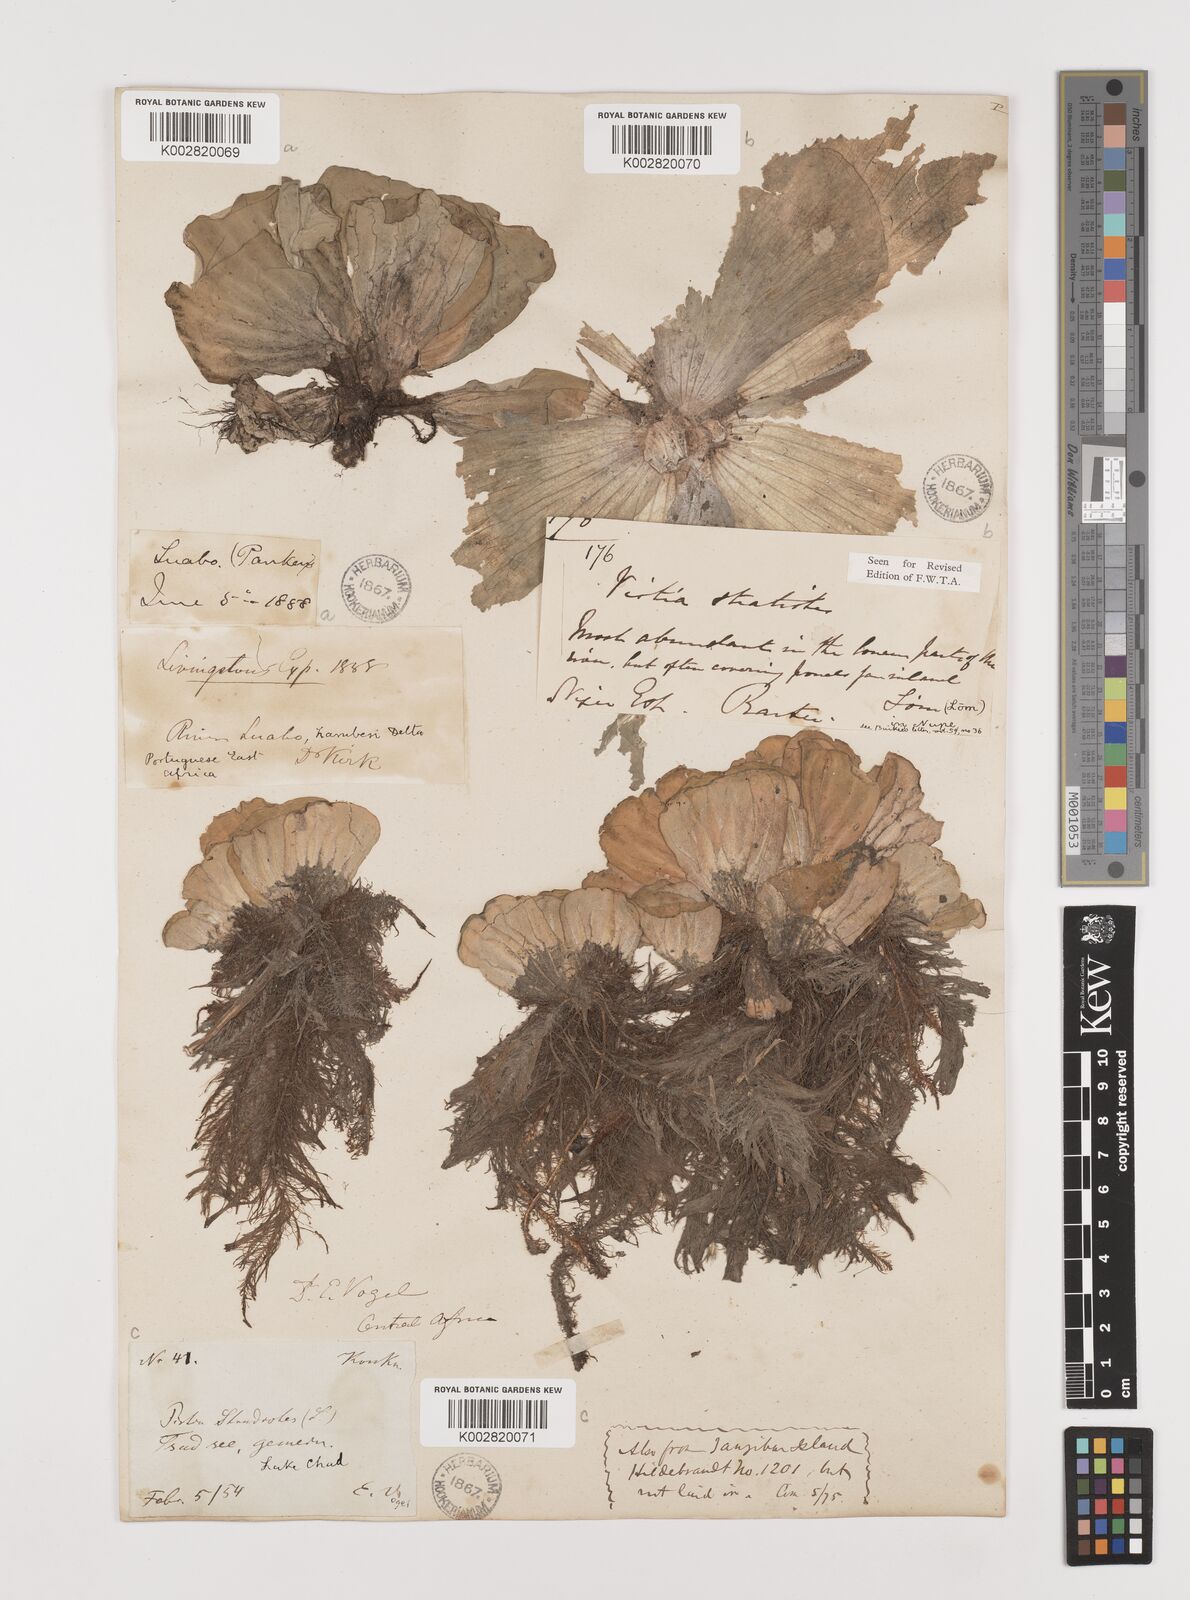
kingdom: Plantae
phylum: Tracheophyta
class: Liliopsida
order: Alismatales
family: Araceae
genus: Pistia
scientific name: Pistia stratiotes
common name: Water lettuce
